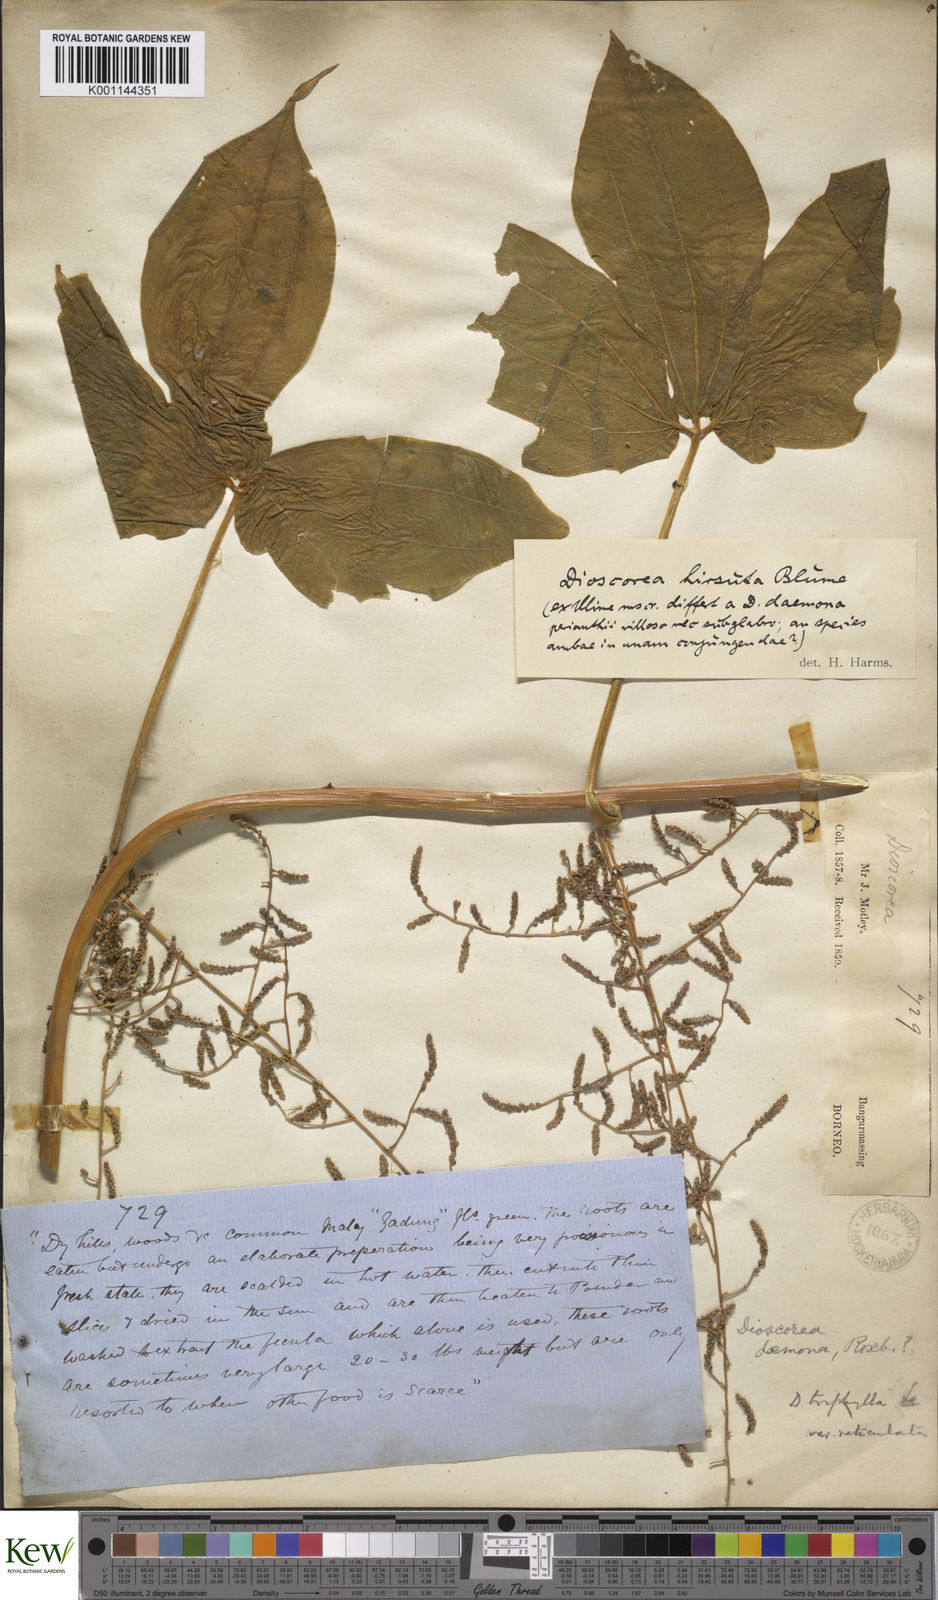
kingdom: Plantae
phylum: Tracheophyta
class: Liliopsida
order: Dioscoreales
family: Dioscoreaceae
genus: Dioscorea
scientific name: Dioscorea hispida
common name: Asiatic bitter yam
